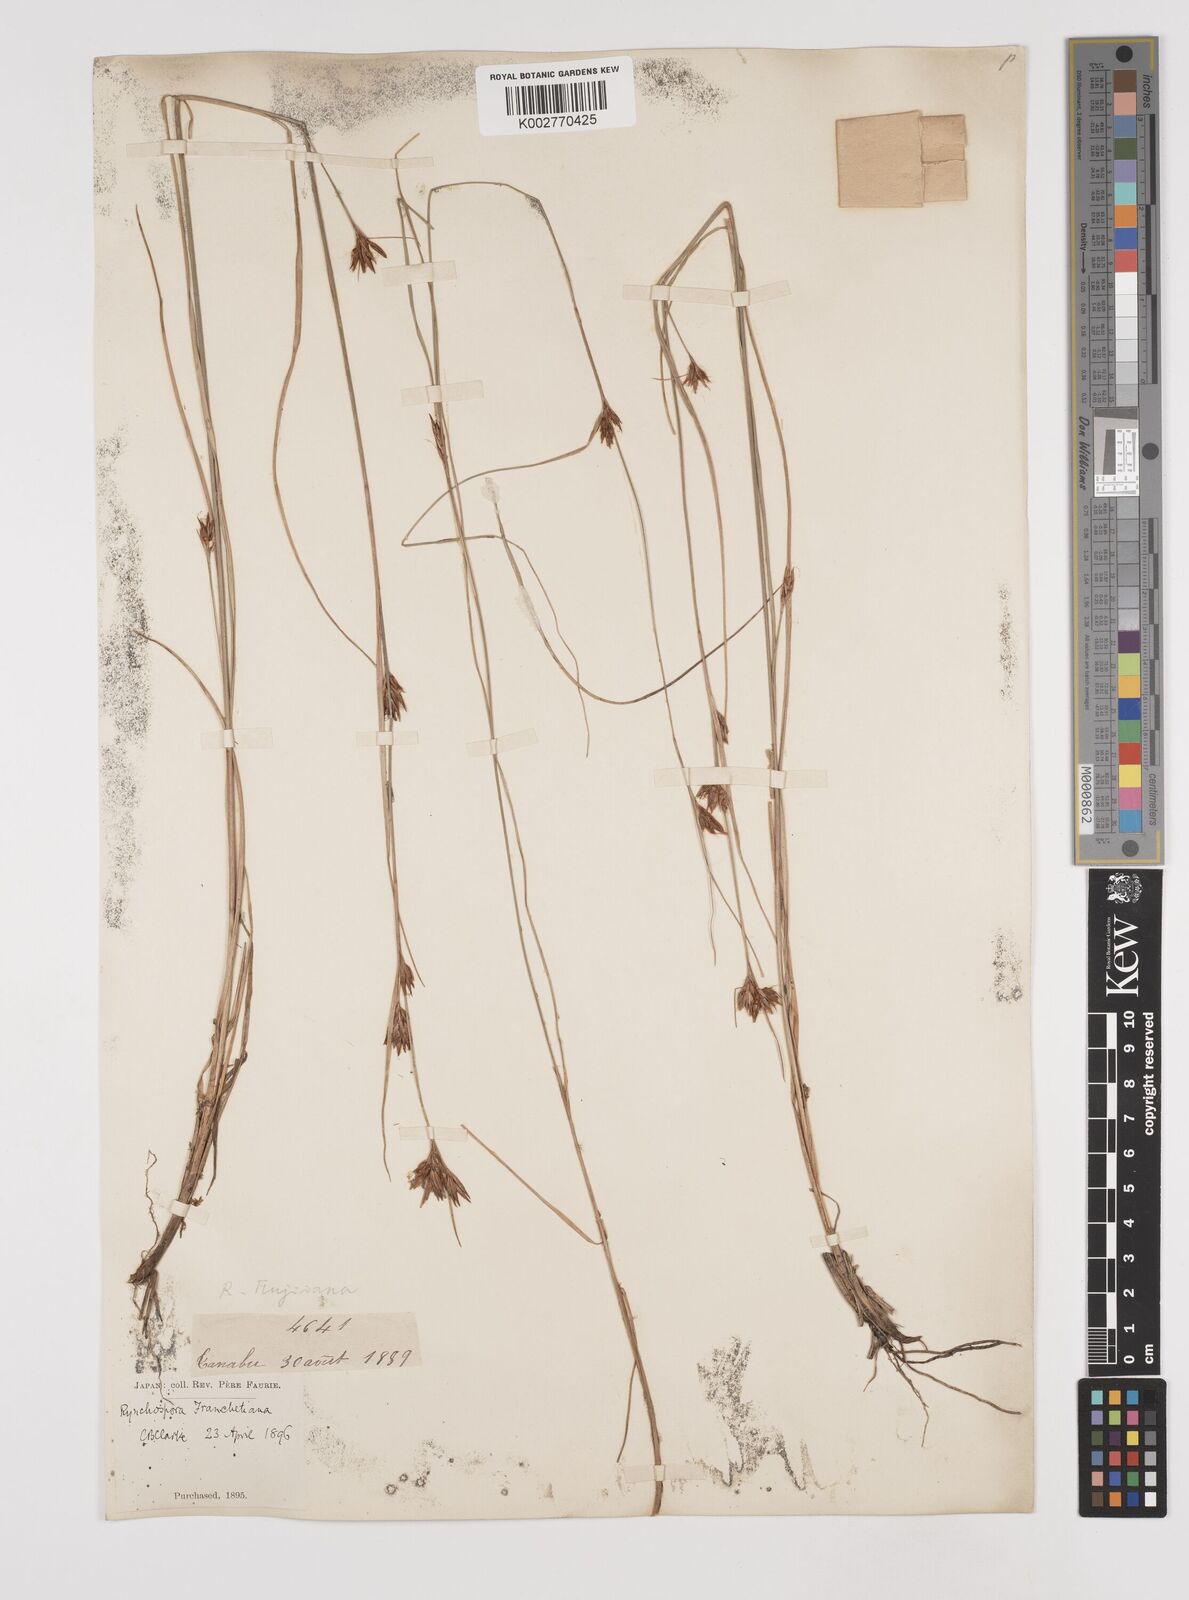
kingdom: Plantae
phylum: Tracheophyta
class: Liliopsida
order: Poales
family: Cyperaceae
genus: Rhynchospora
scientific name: Rhynchospora fujiiana
